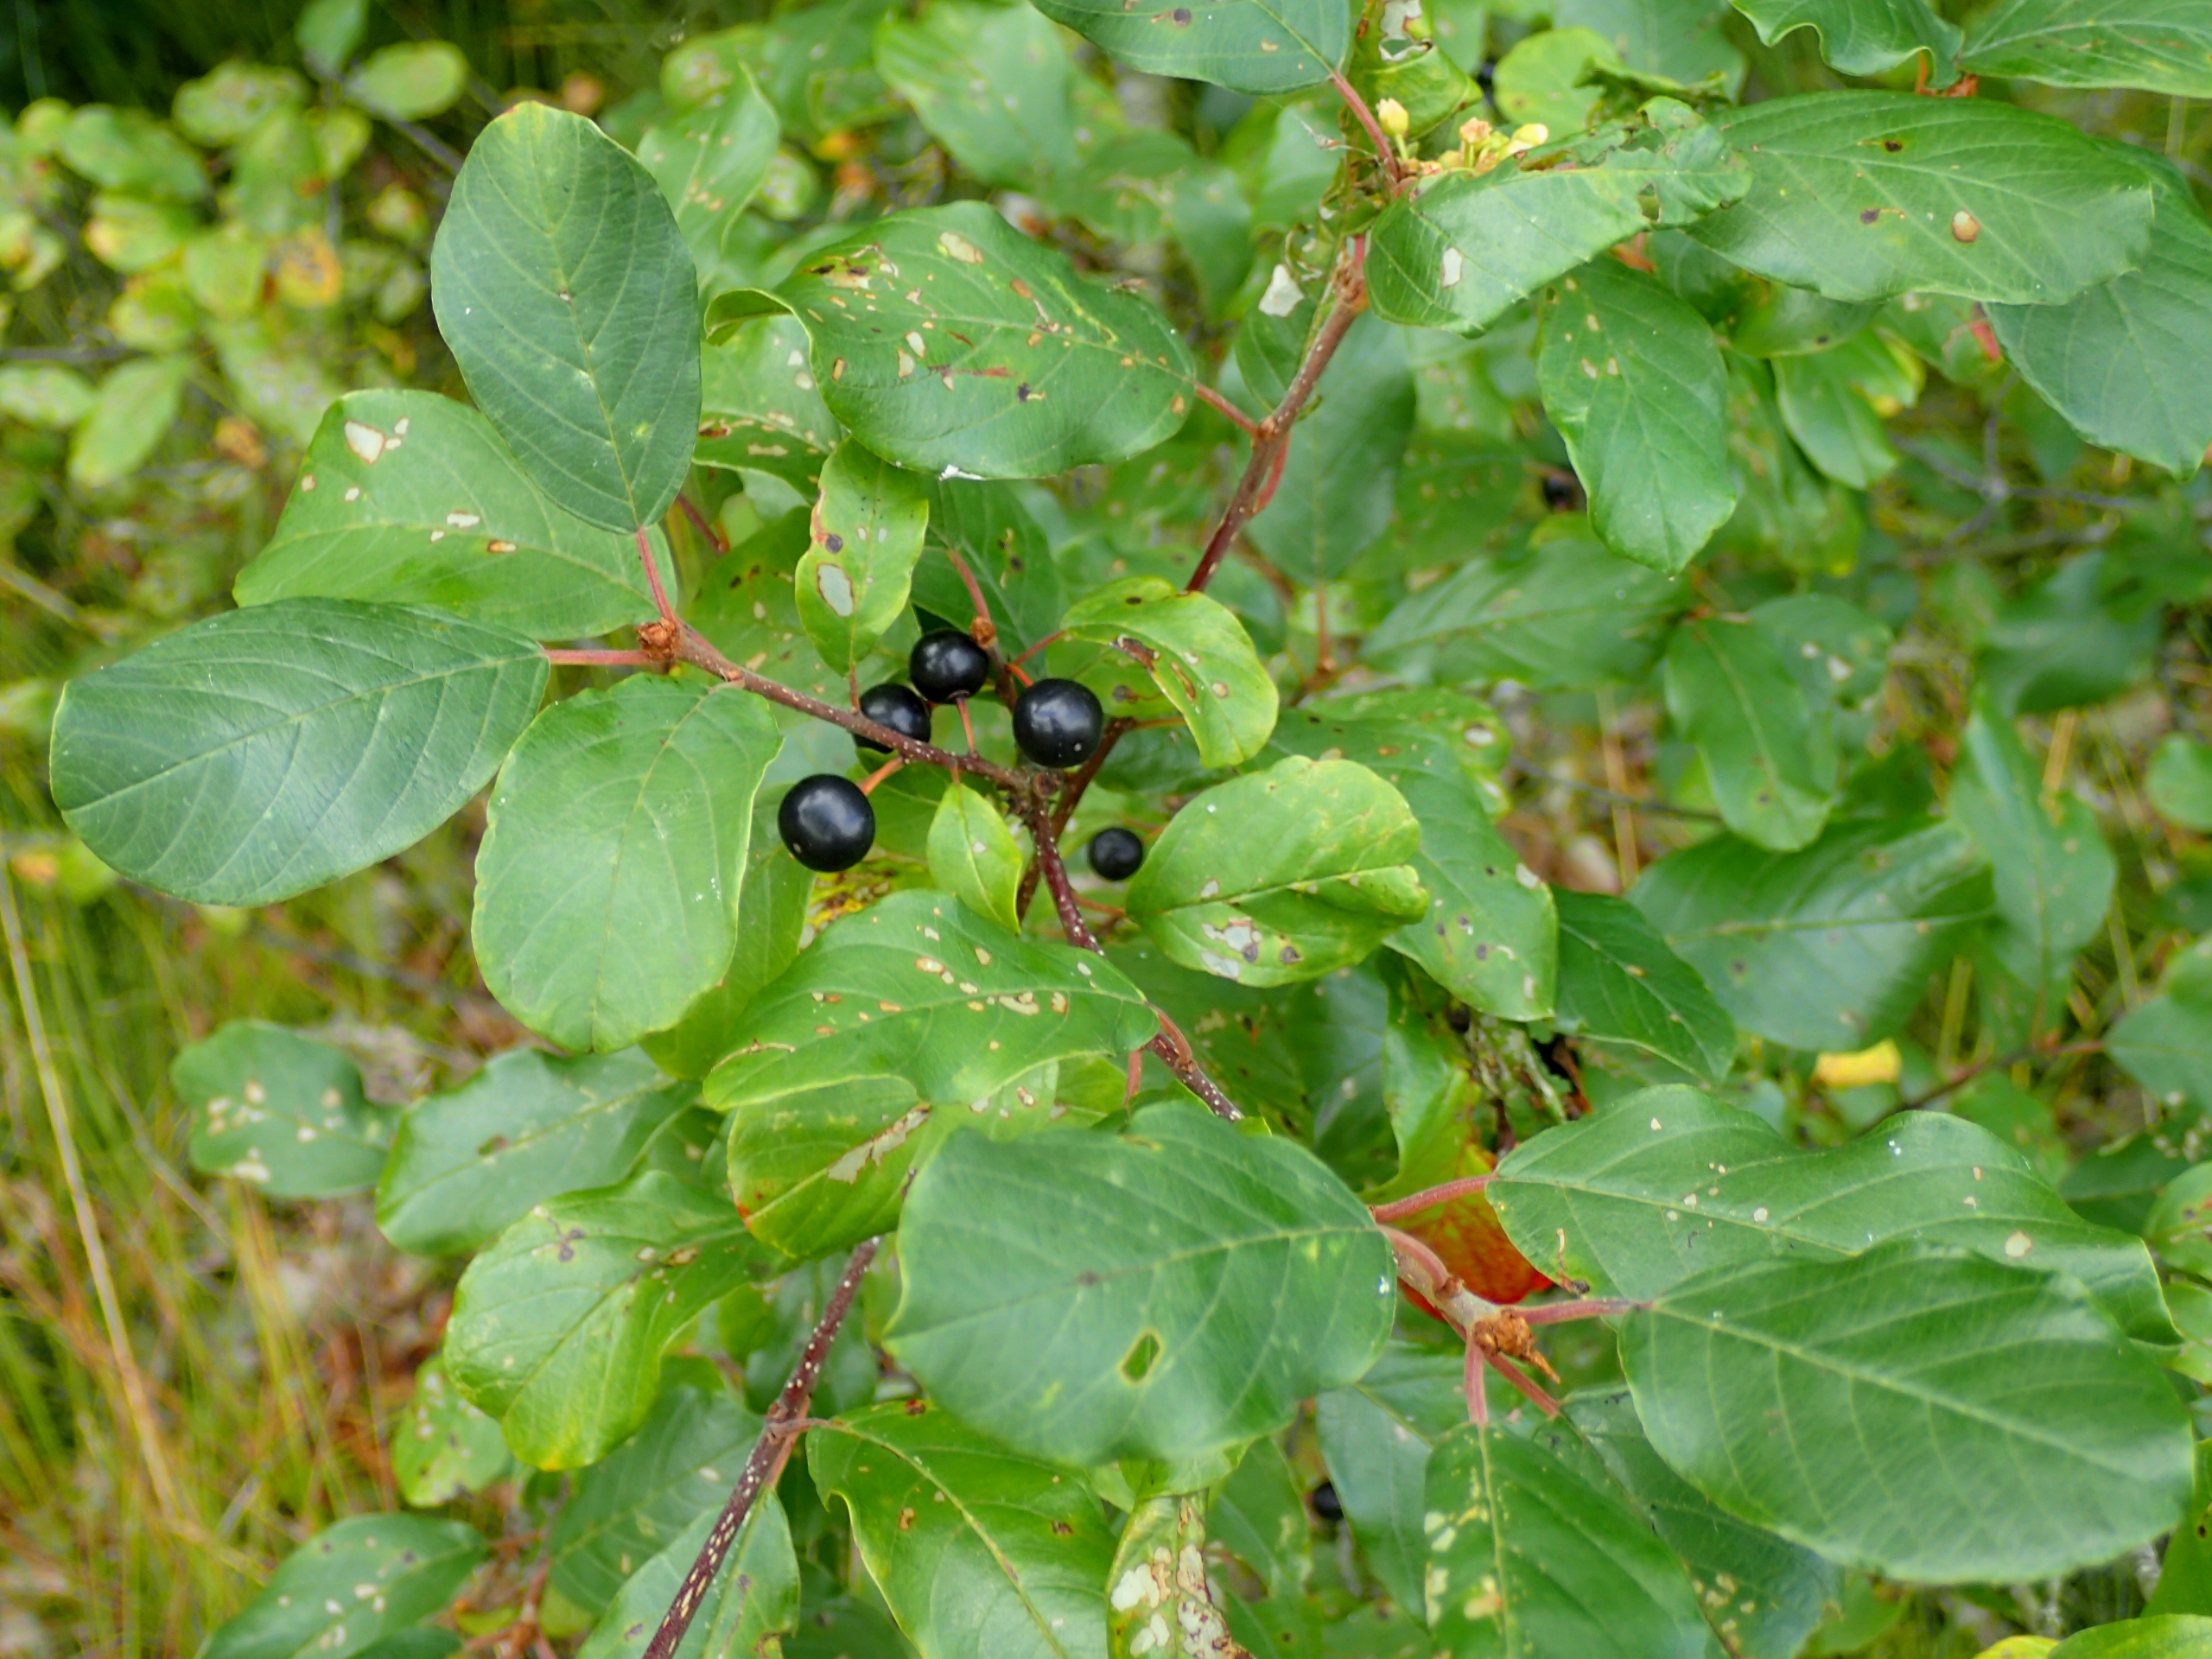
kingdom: Plantae
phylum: Tracheophyta
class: Magnoliopsida
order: Rosales
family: Rhamnaceae
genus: Frangula
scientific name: Frangula alnus
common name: Tørst
